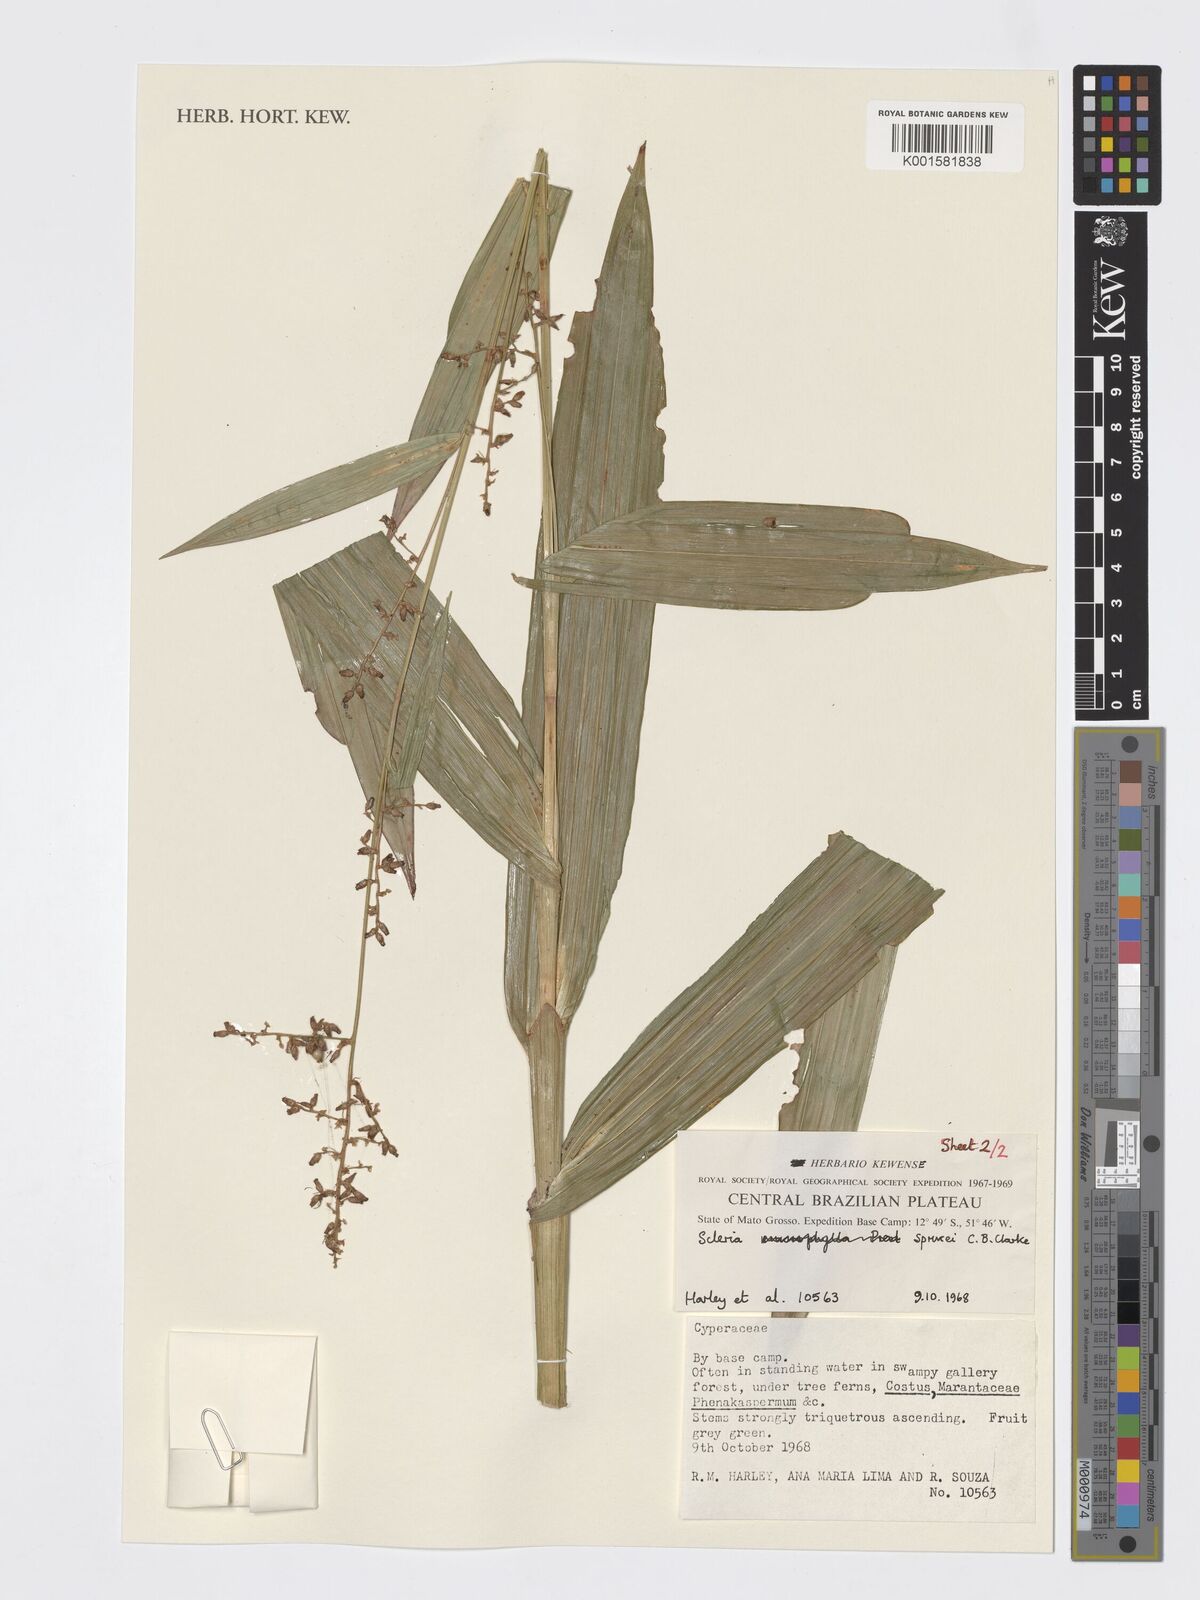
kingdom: Plantae
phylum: Tracheophyta
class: Liliopsida
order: Poales
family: Cyperaceae
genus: Scleria
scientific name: Scleria sprucei
